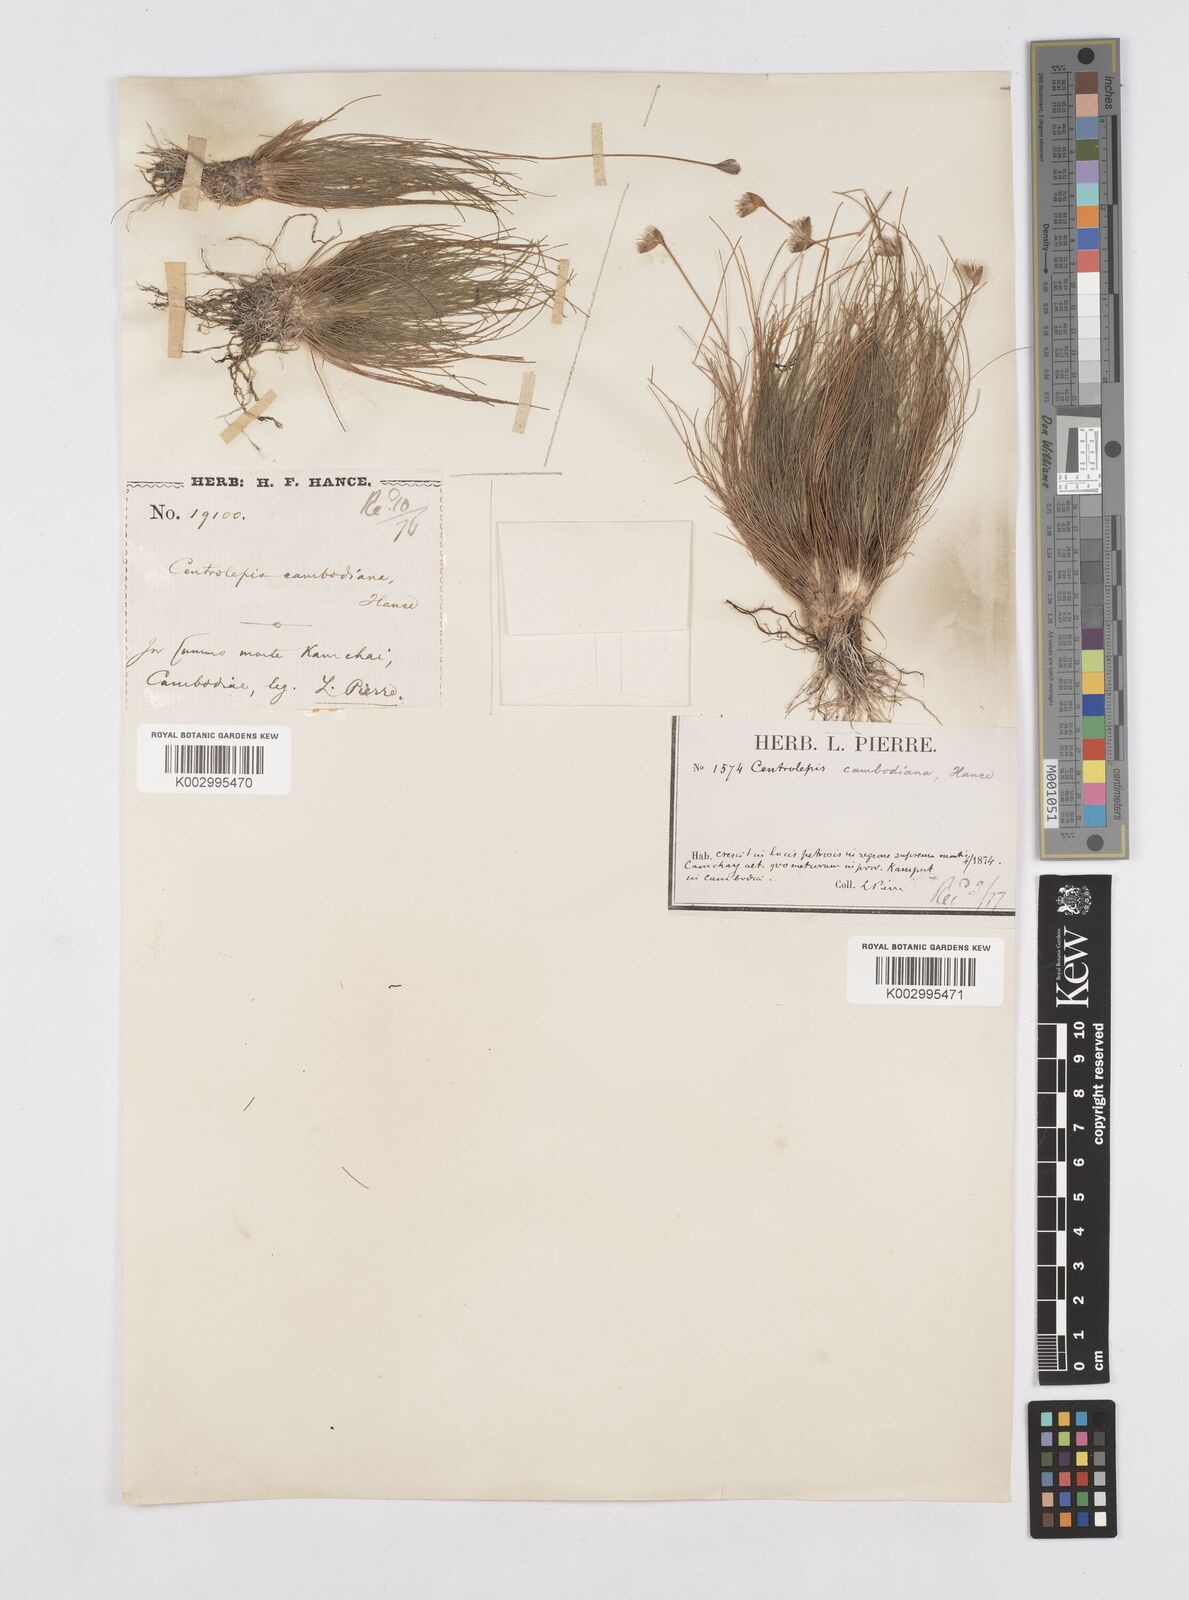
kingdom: Plantae
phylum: Tracheophyta
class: Liliopsida
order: Poales
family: Restionaceae
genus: Centrolepis
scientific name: Centrolepis cambodiana
